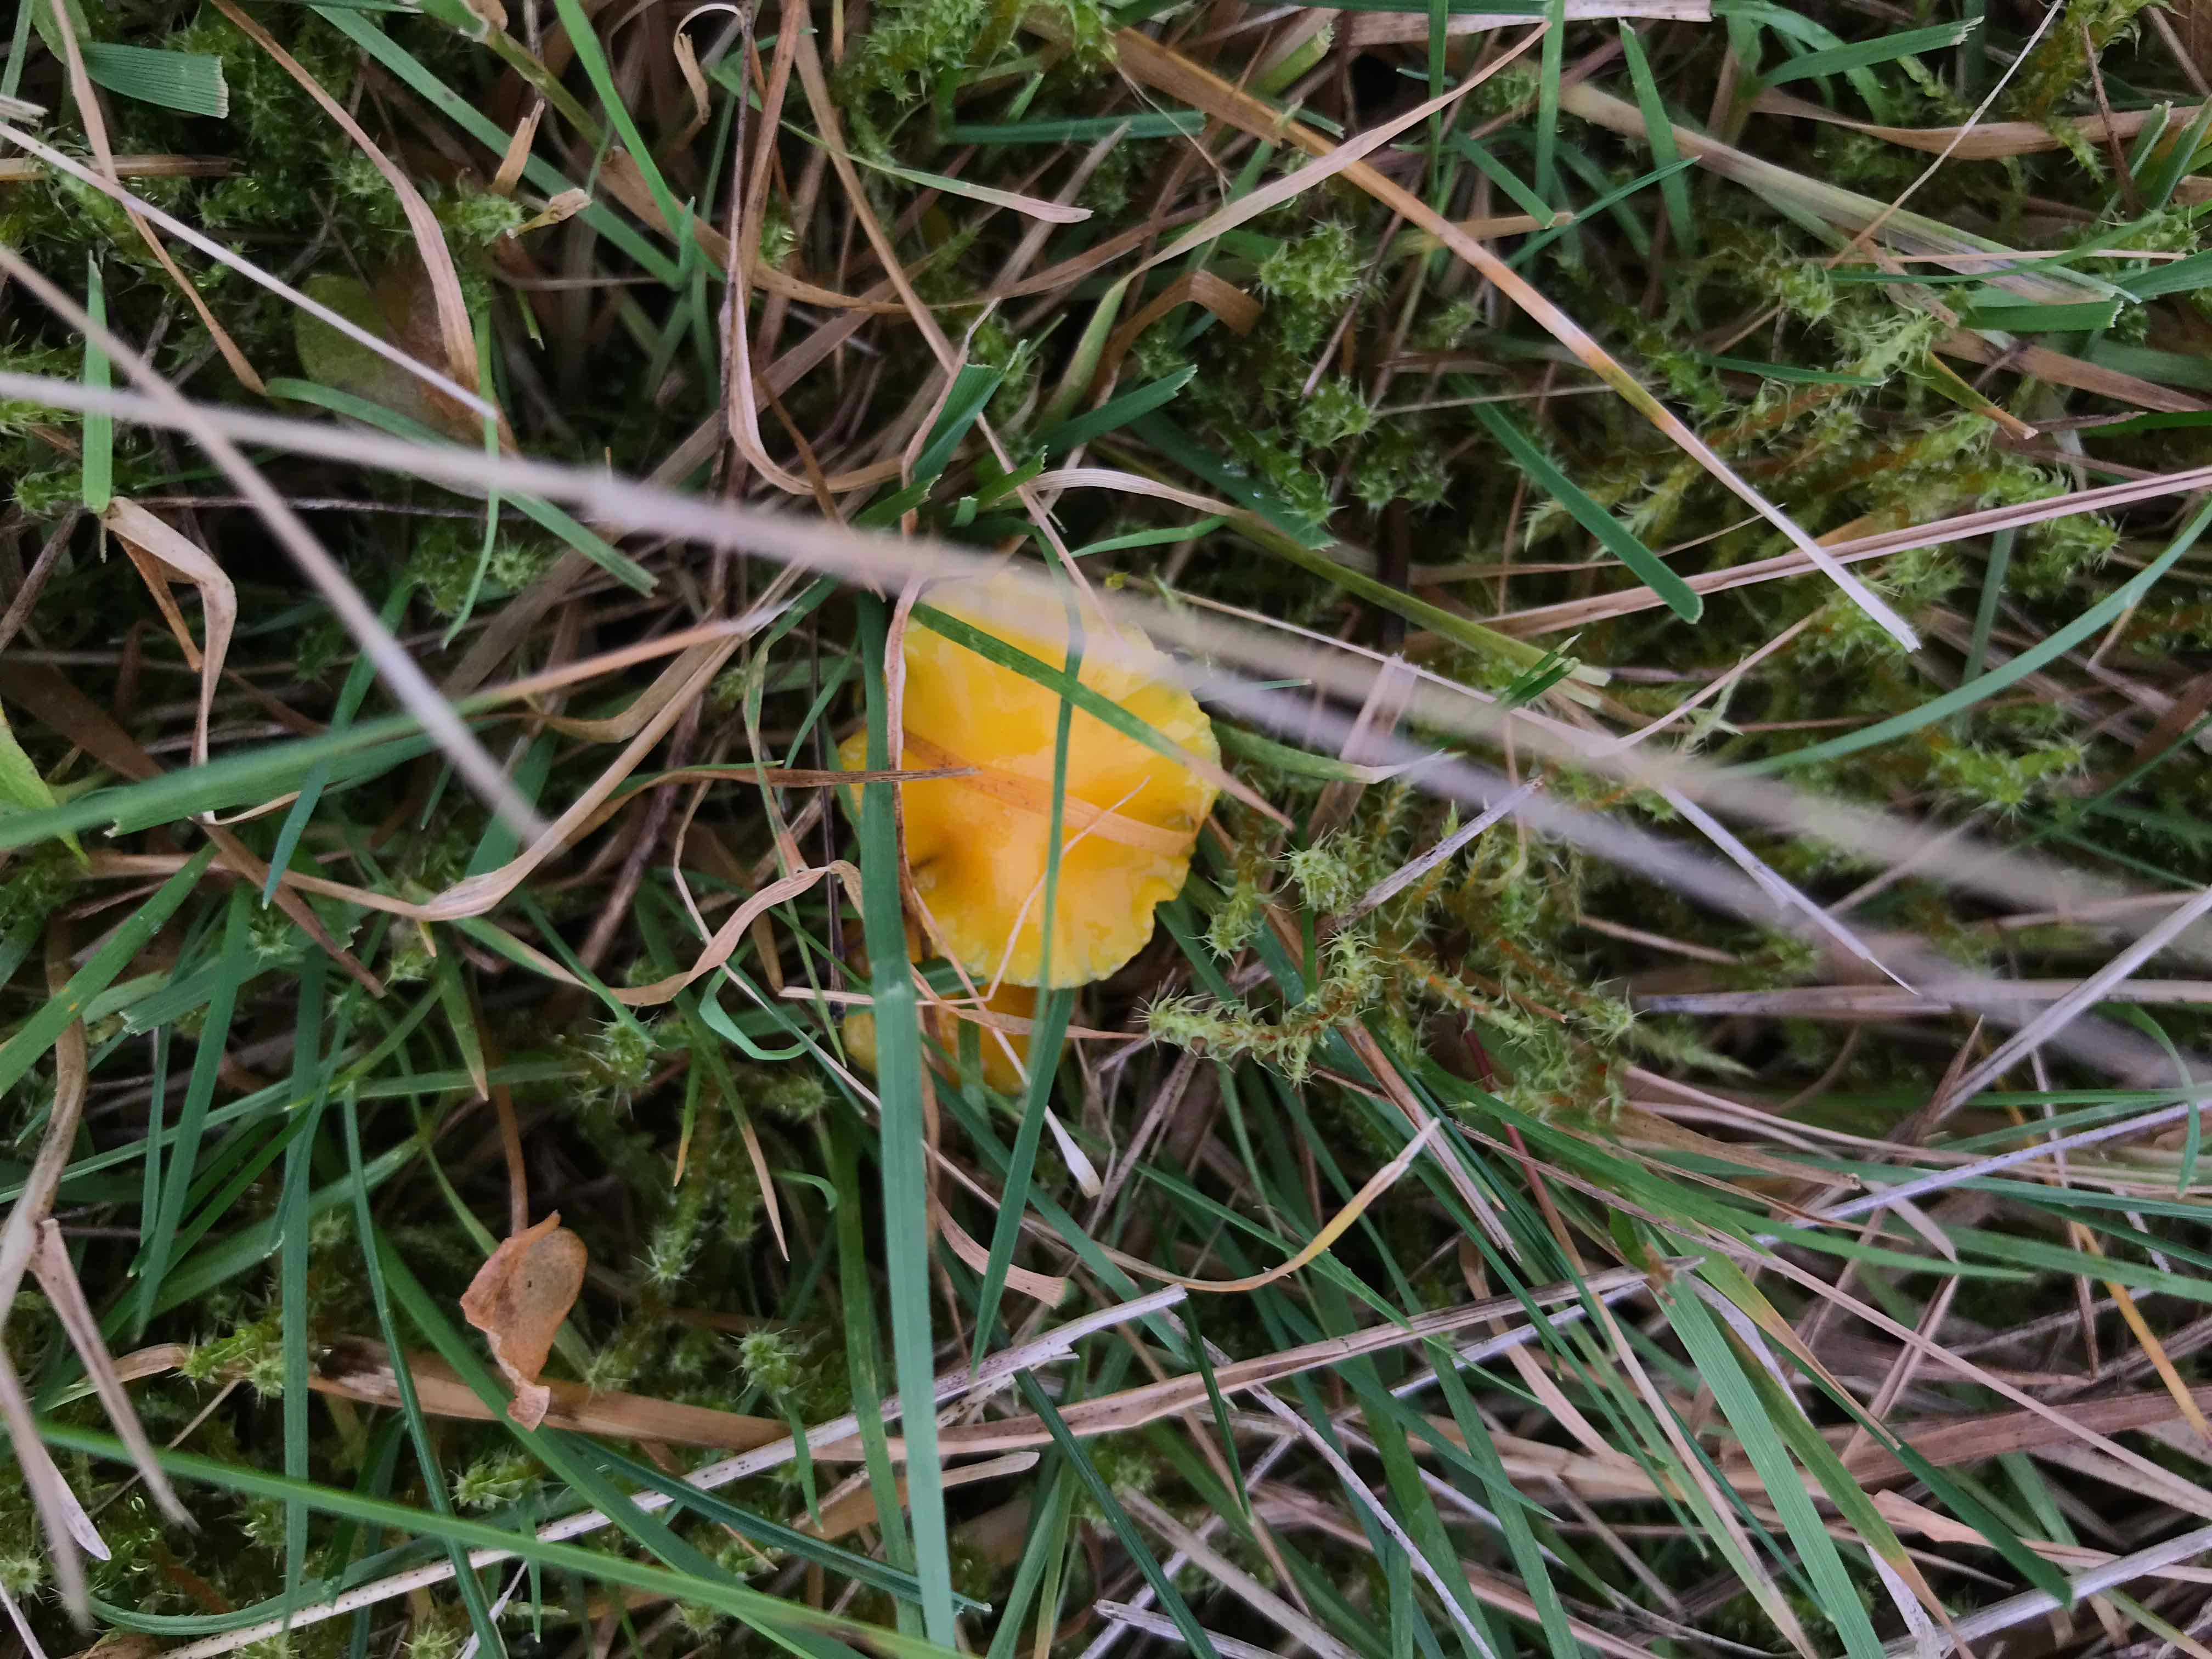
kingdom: Fungi
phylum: Basidiomycota
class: Agaricomycetes
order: Agaricales
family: Hygrophoraceae
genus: Hygrocybe
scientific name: Hygrocybe ceracea
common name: voksgul vokshat
